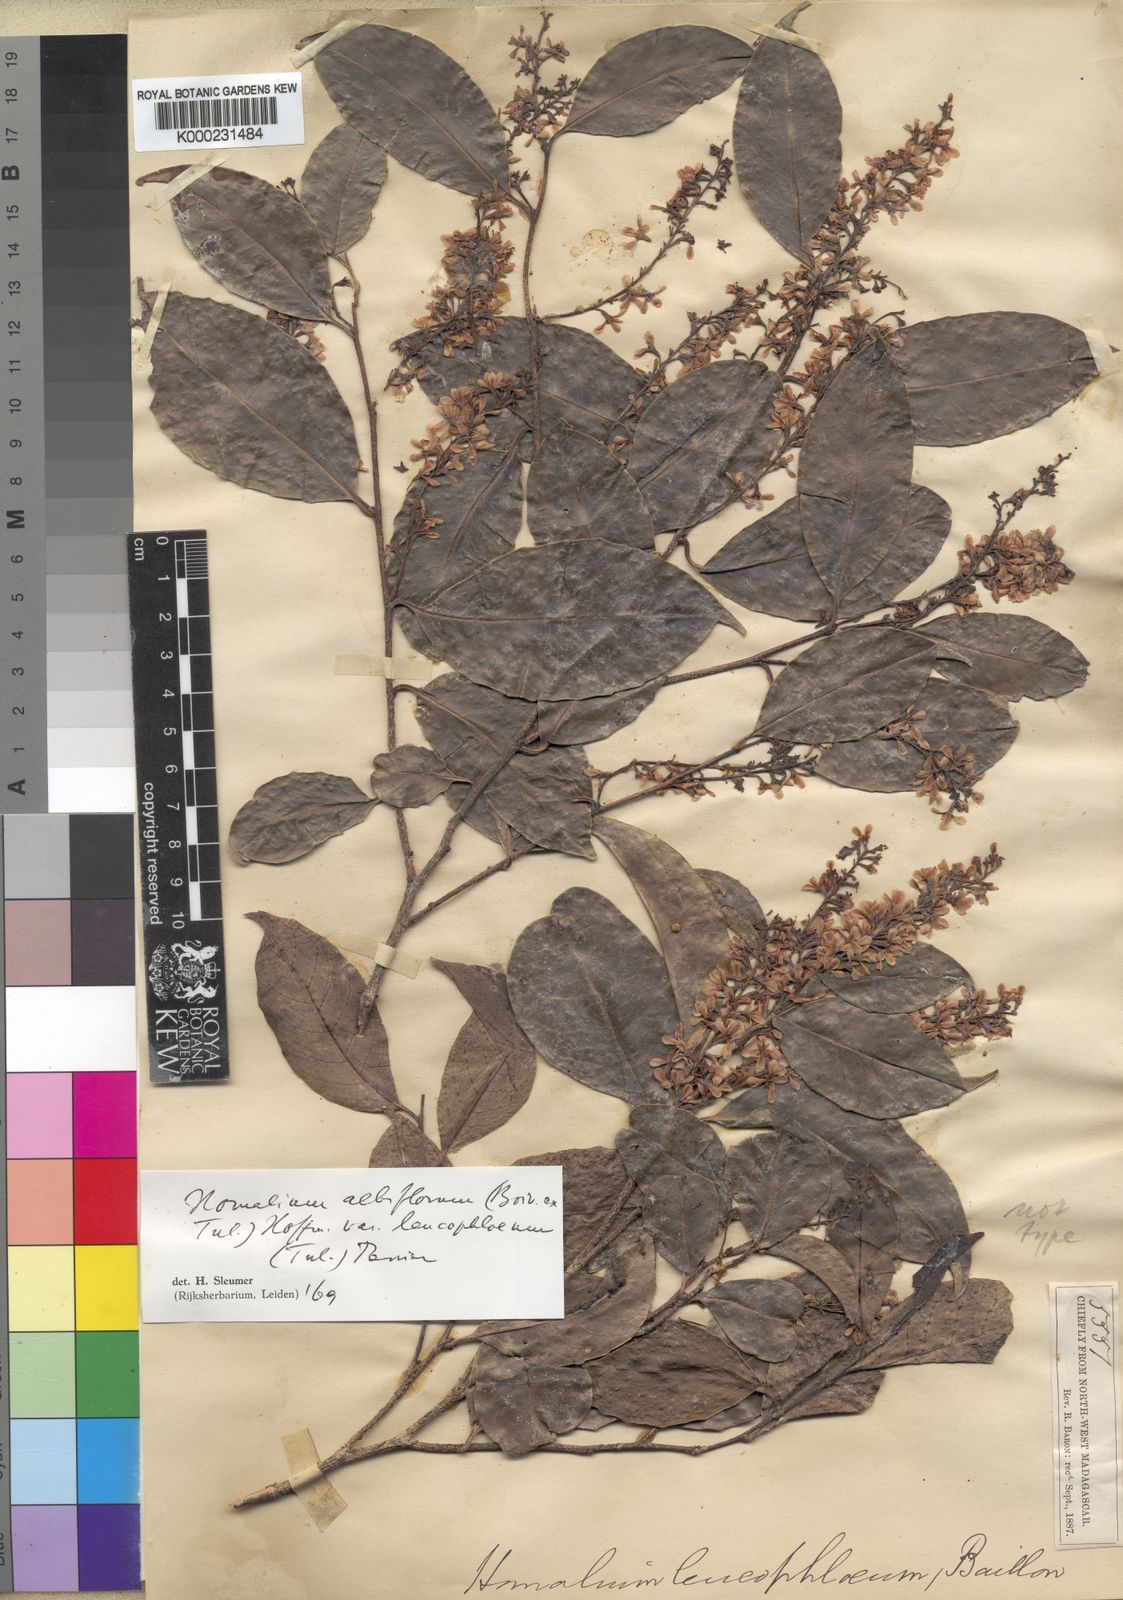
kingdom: Plantae
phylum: Tracheophyta
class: Magnoliopsida
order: Malpighiales
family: Salicaceae
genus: Homalium
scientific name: Homalium
